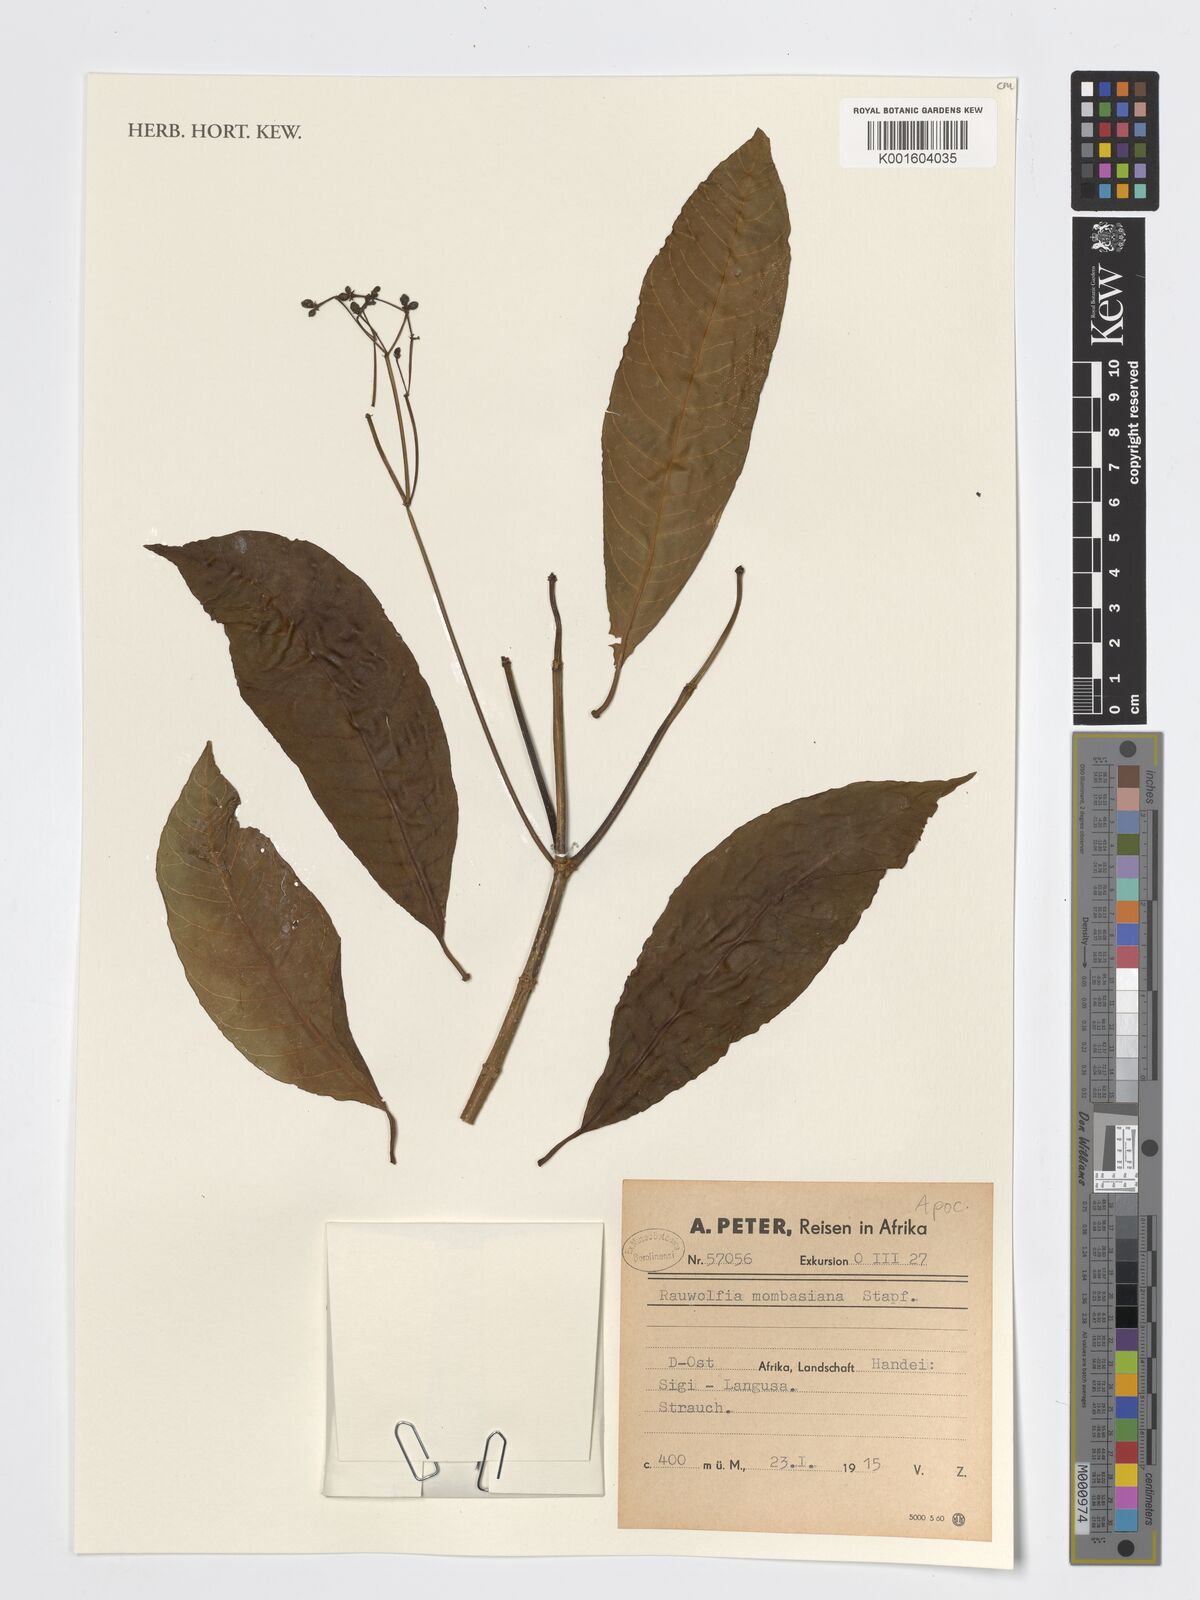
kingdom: Plantae
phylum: Tracheophyta
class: Magnoliopsida
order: Gentianales
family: Apocynaceae
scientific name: Apocynaceae
